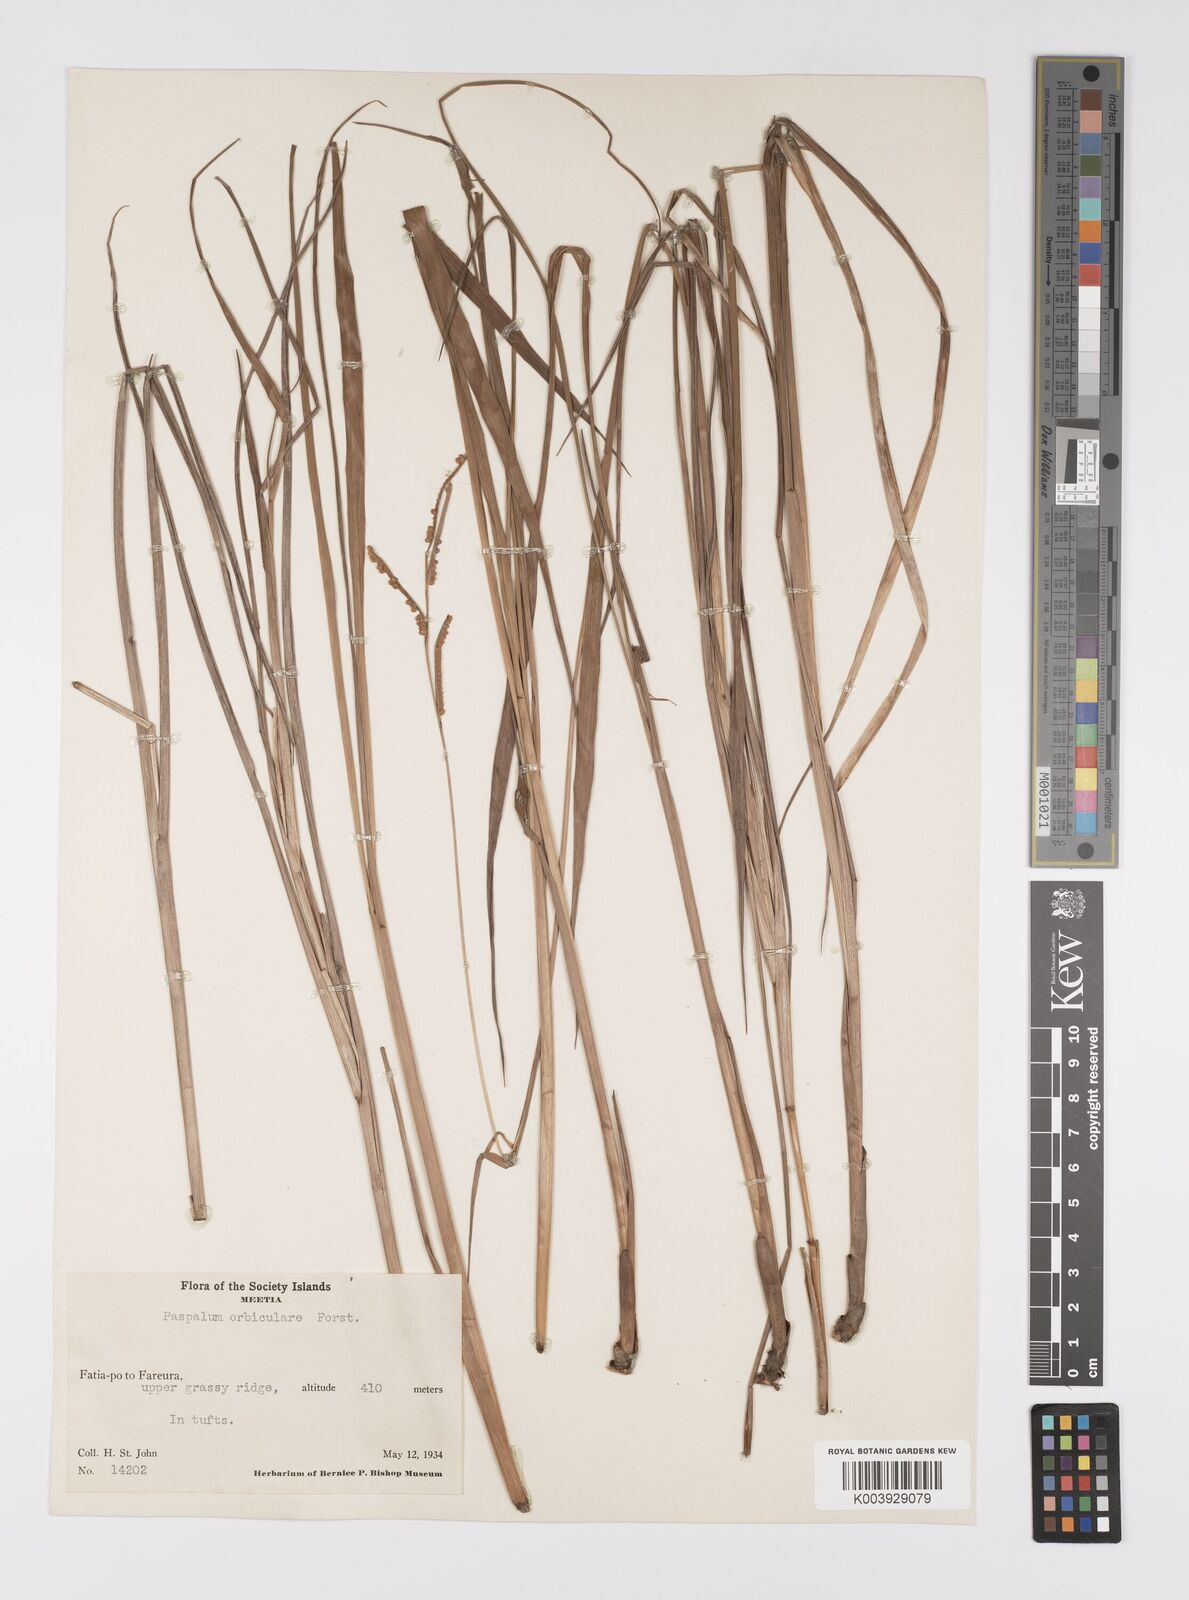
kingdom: Plantae
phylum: Tracheophyta
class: Liliopsida
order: Poales
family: Poaceae
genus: Paspalum
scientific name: Paspalum
